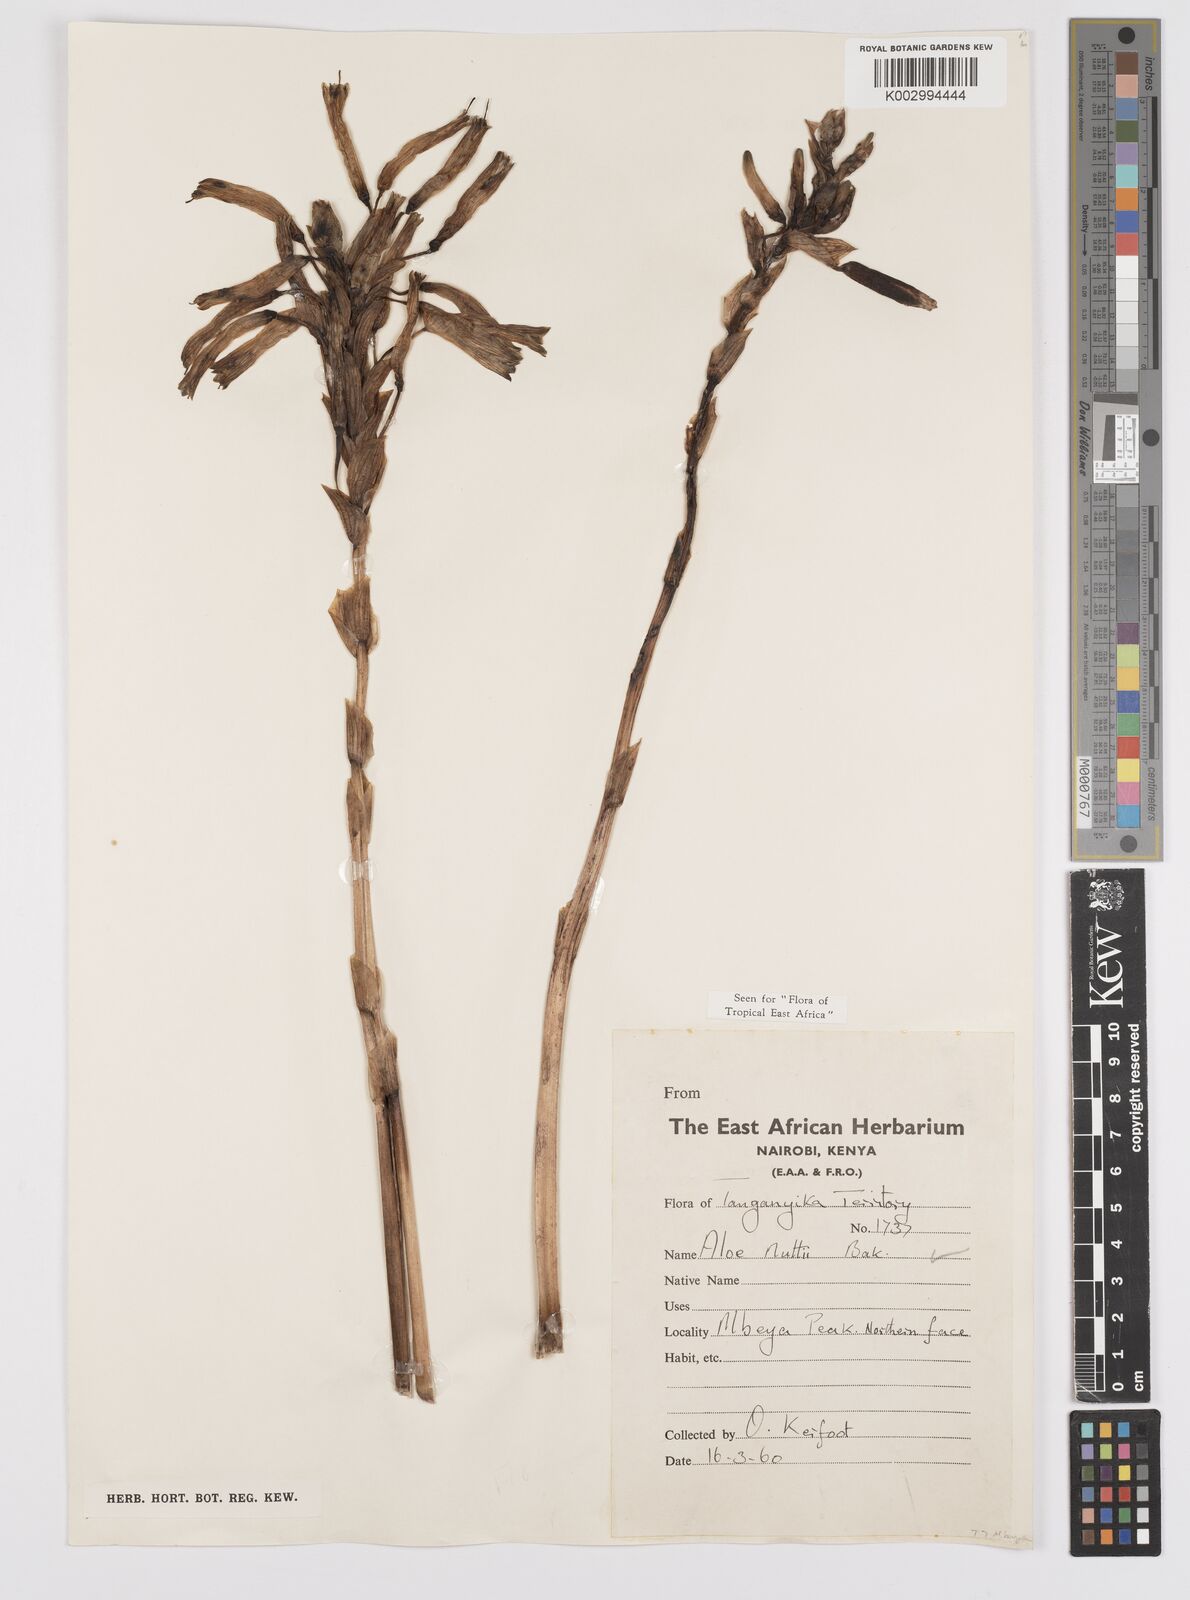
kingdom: Plantae
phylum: Tracheophyta
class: Liliopsida
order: Asparagales
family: Asphodelaceae
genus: Aloe
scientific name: Aloe nuttii
